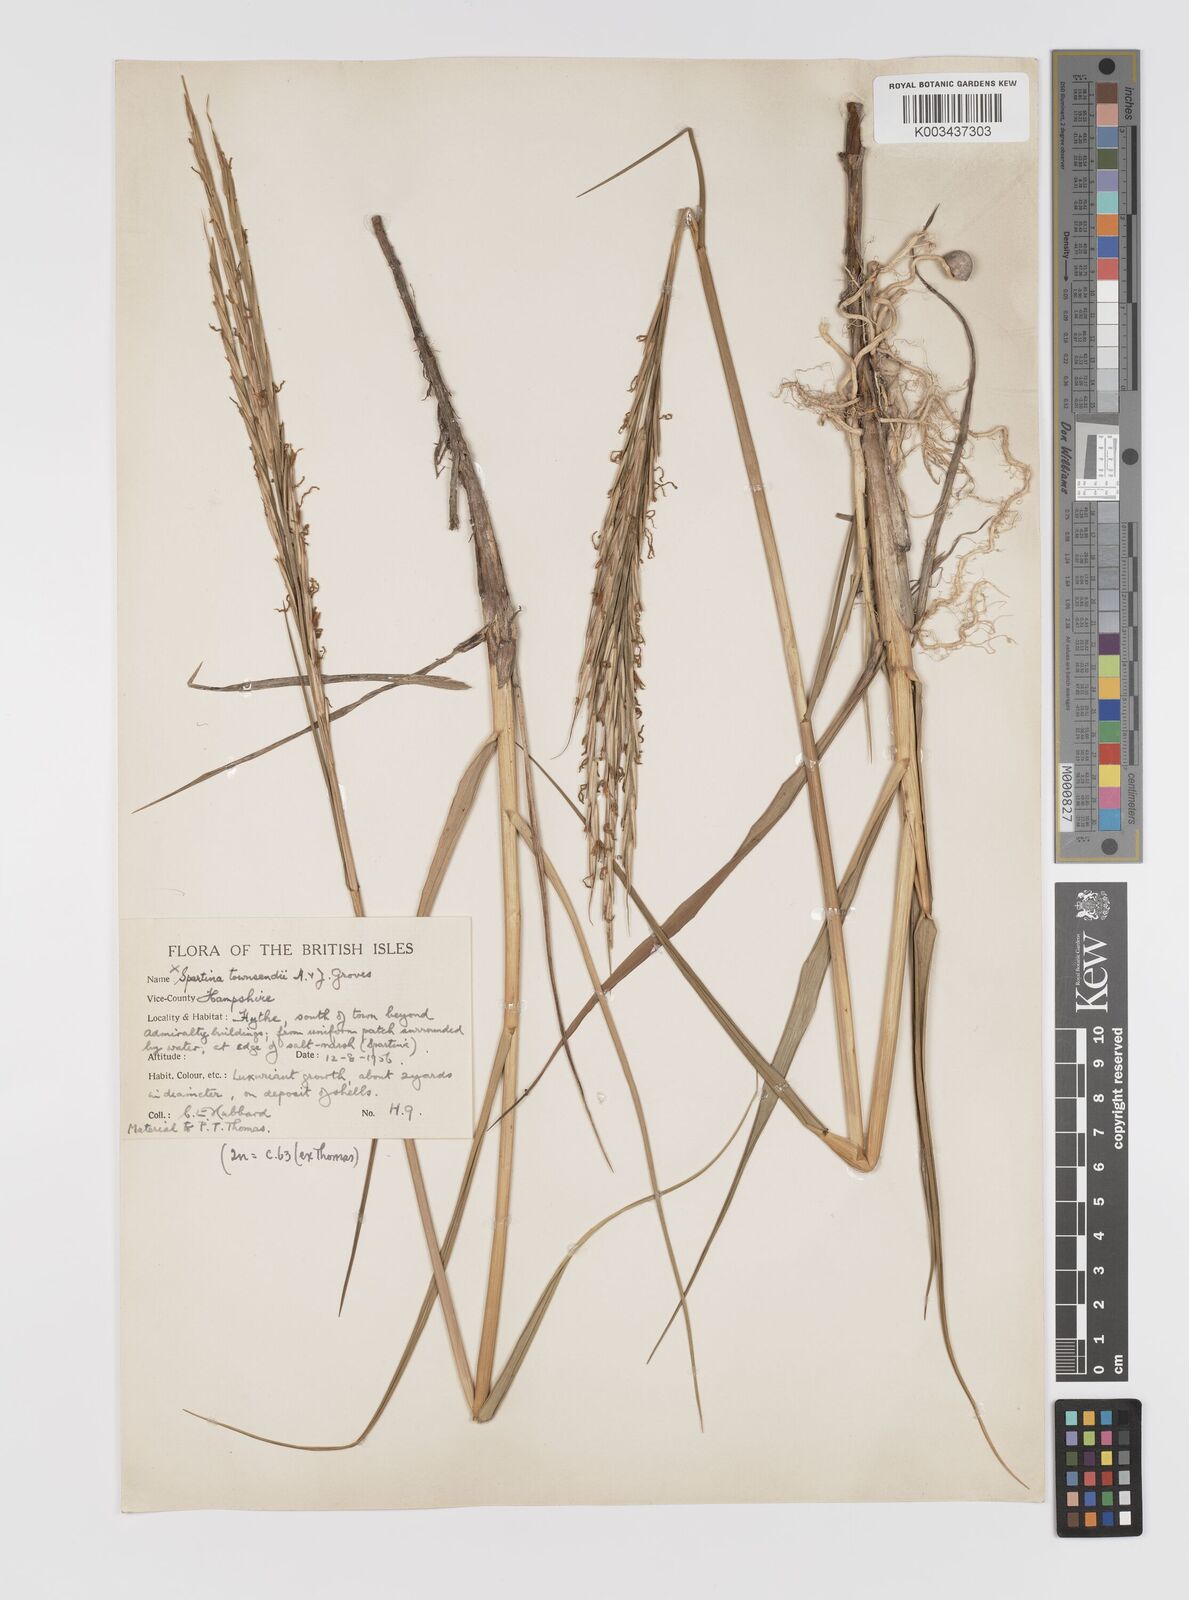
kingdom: Plantae
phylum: Tracheophyta
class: Liliopsida
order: Poales
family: Poaceae
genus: Sporobolus
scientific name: Sporobolus townsendii
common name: Townsend's cordgrass
